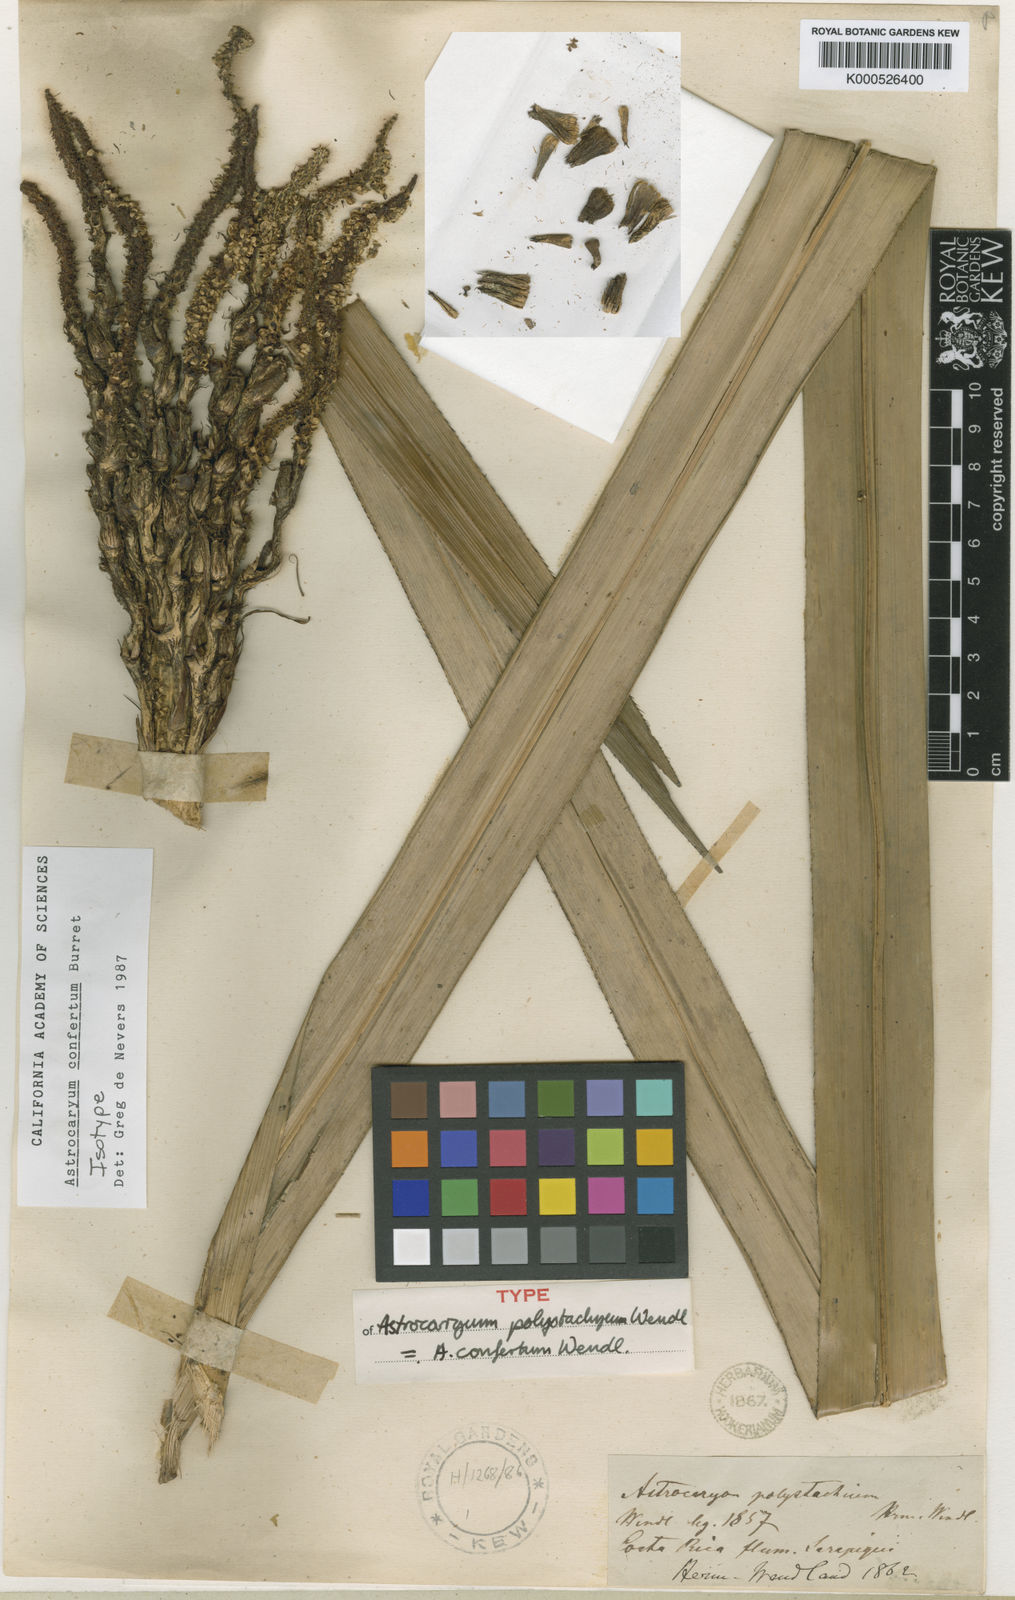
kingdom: Plantae
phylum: Tracheophyta
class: Liliopsida
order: Arecales
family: Arecaceae
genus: Astrocaryum
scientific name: Astrocaryum confertum
